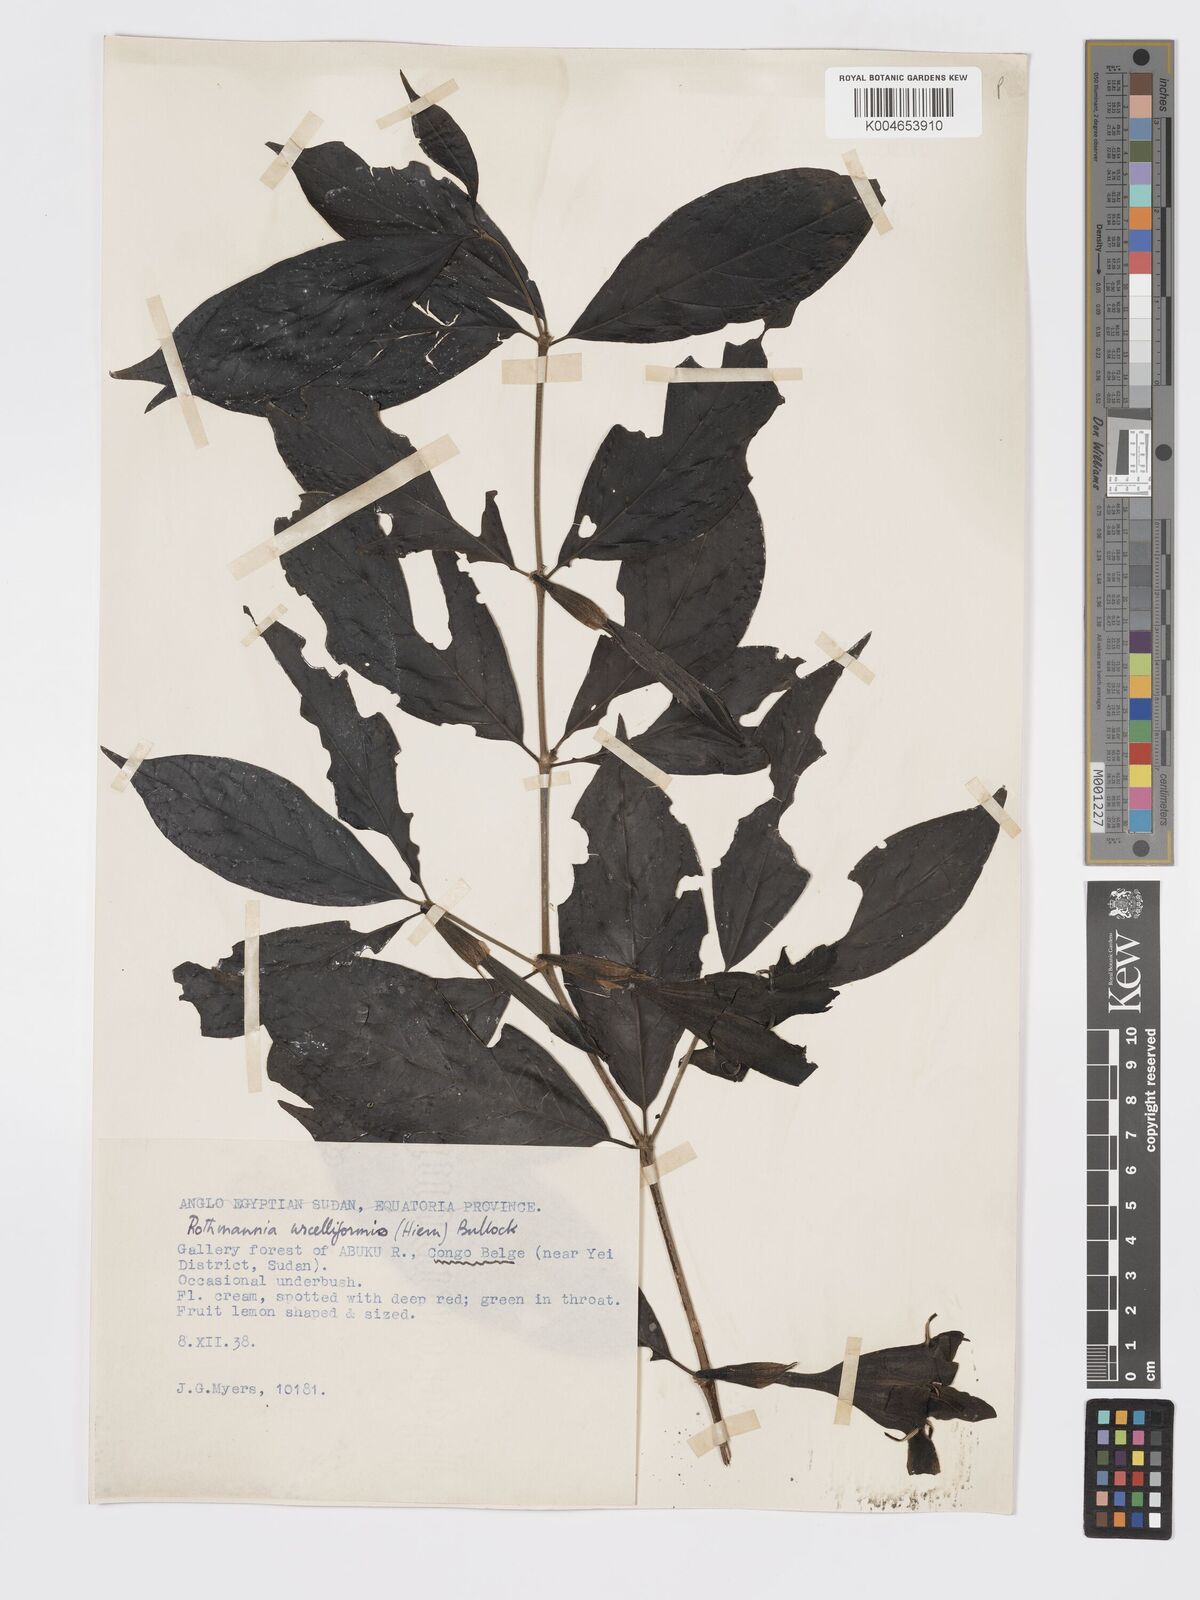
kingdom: Plantae
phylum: Tracheophyta
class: Magnoliopsida
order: Gentianales
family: Rubiaceae
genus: Rothmannia
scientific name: Rothmannia urcelliformis
